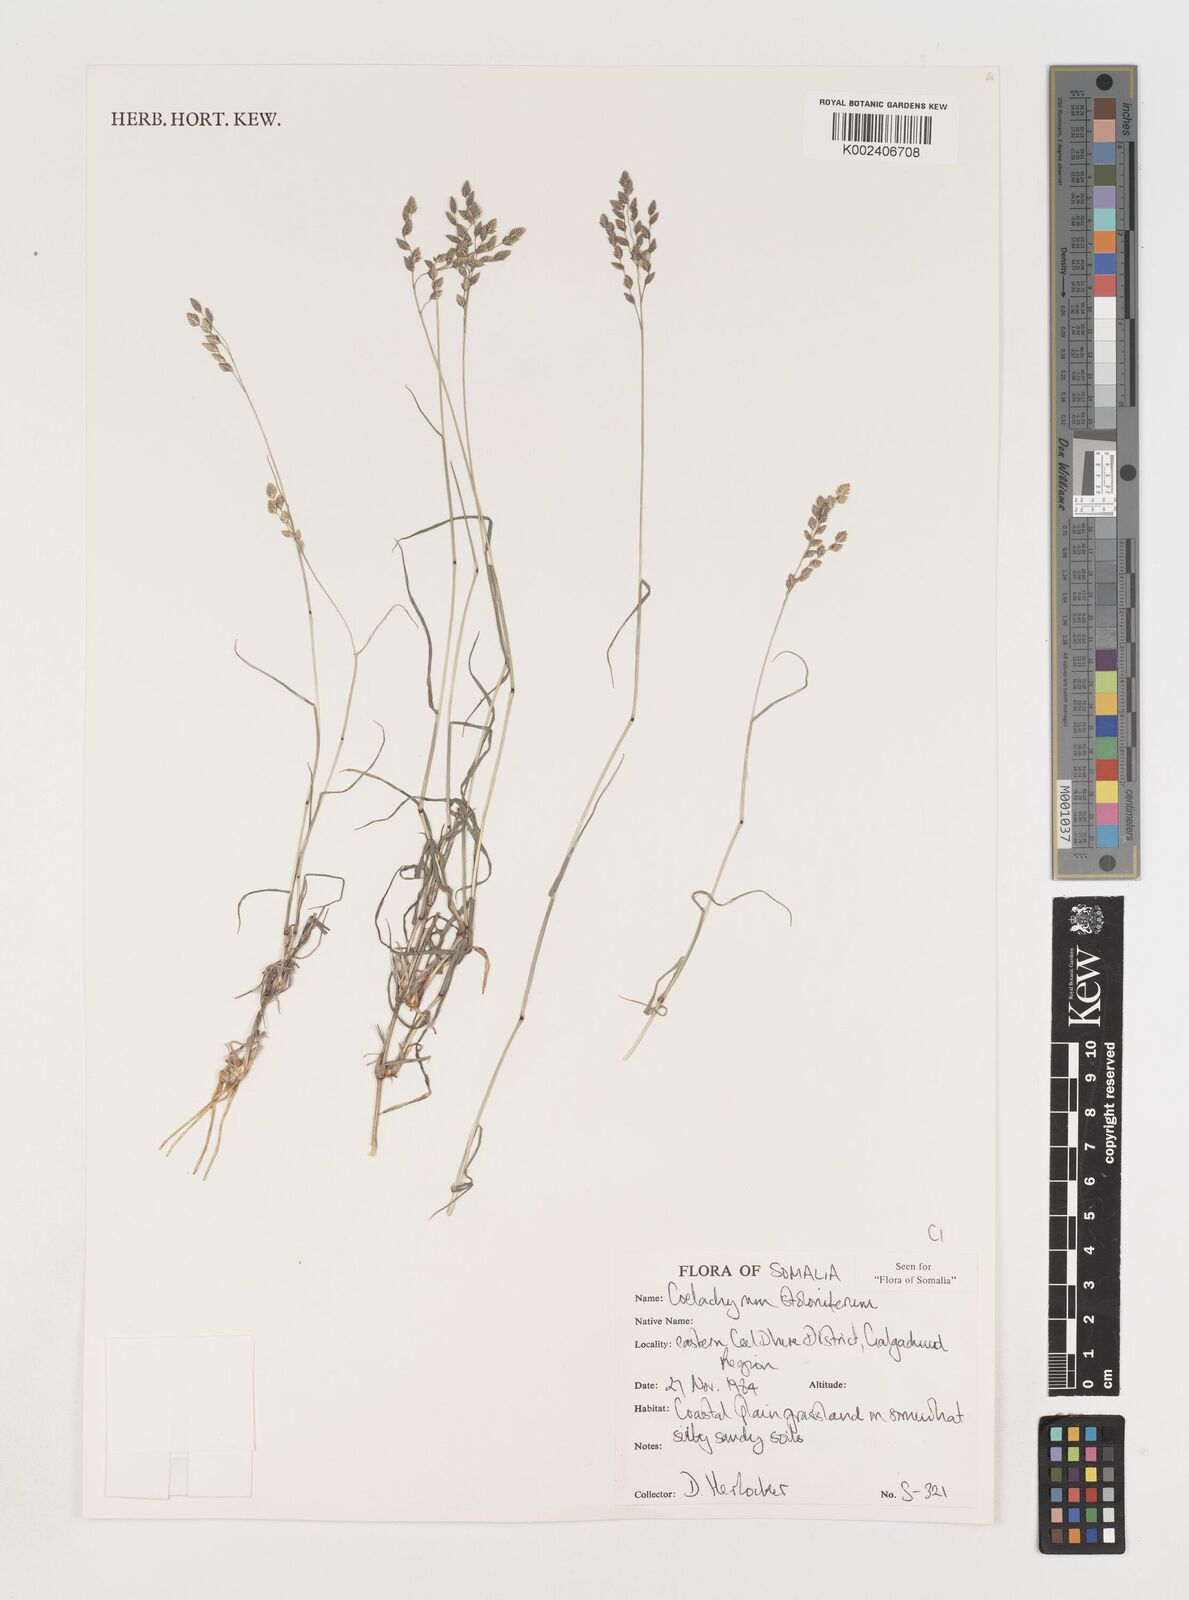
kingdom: Plantae
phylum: Tracheophyta
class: Liliopsida
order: Poales
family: Poaceae
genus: Coelachyrum
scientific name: Coelachyrum piercei
